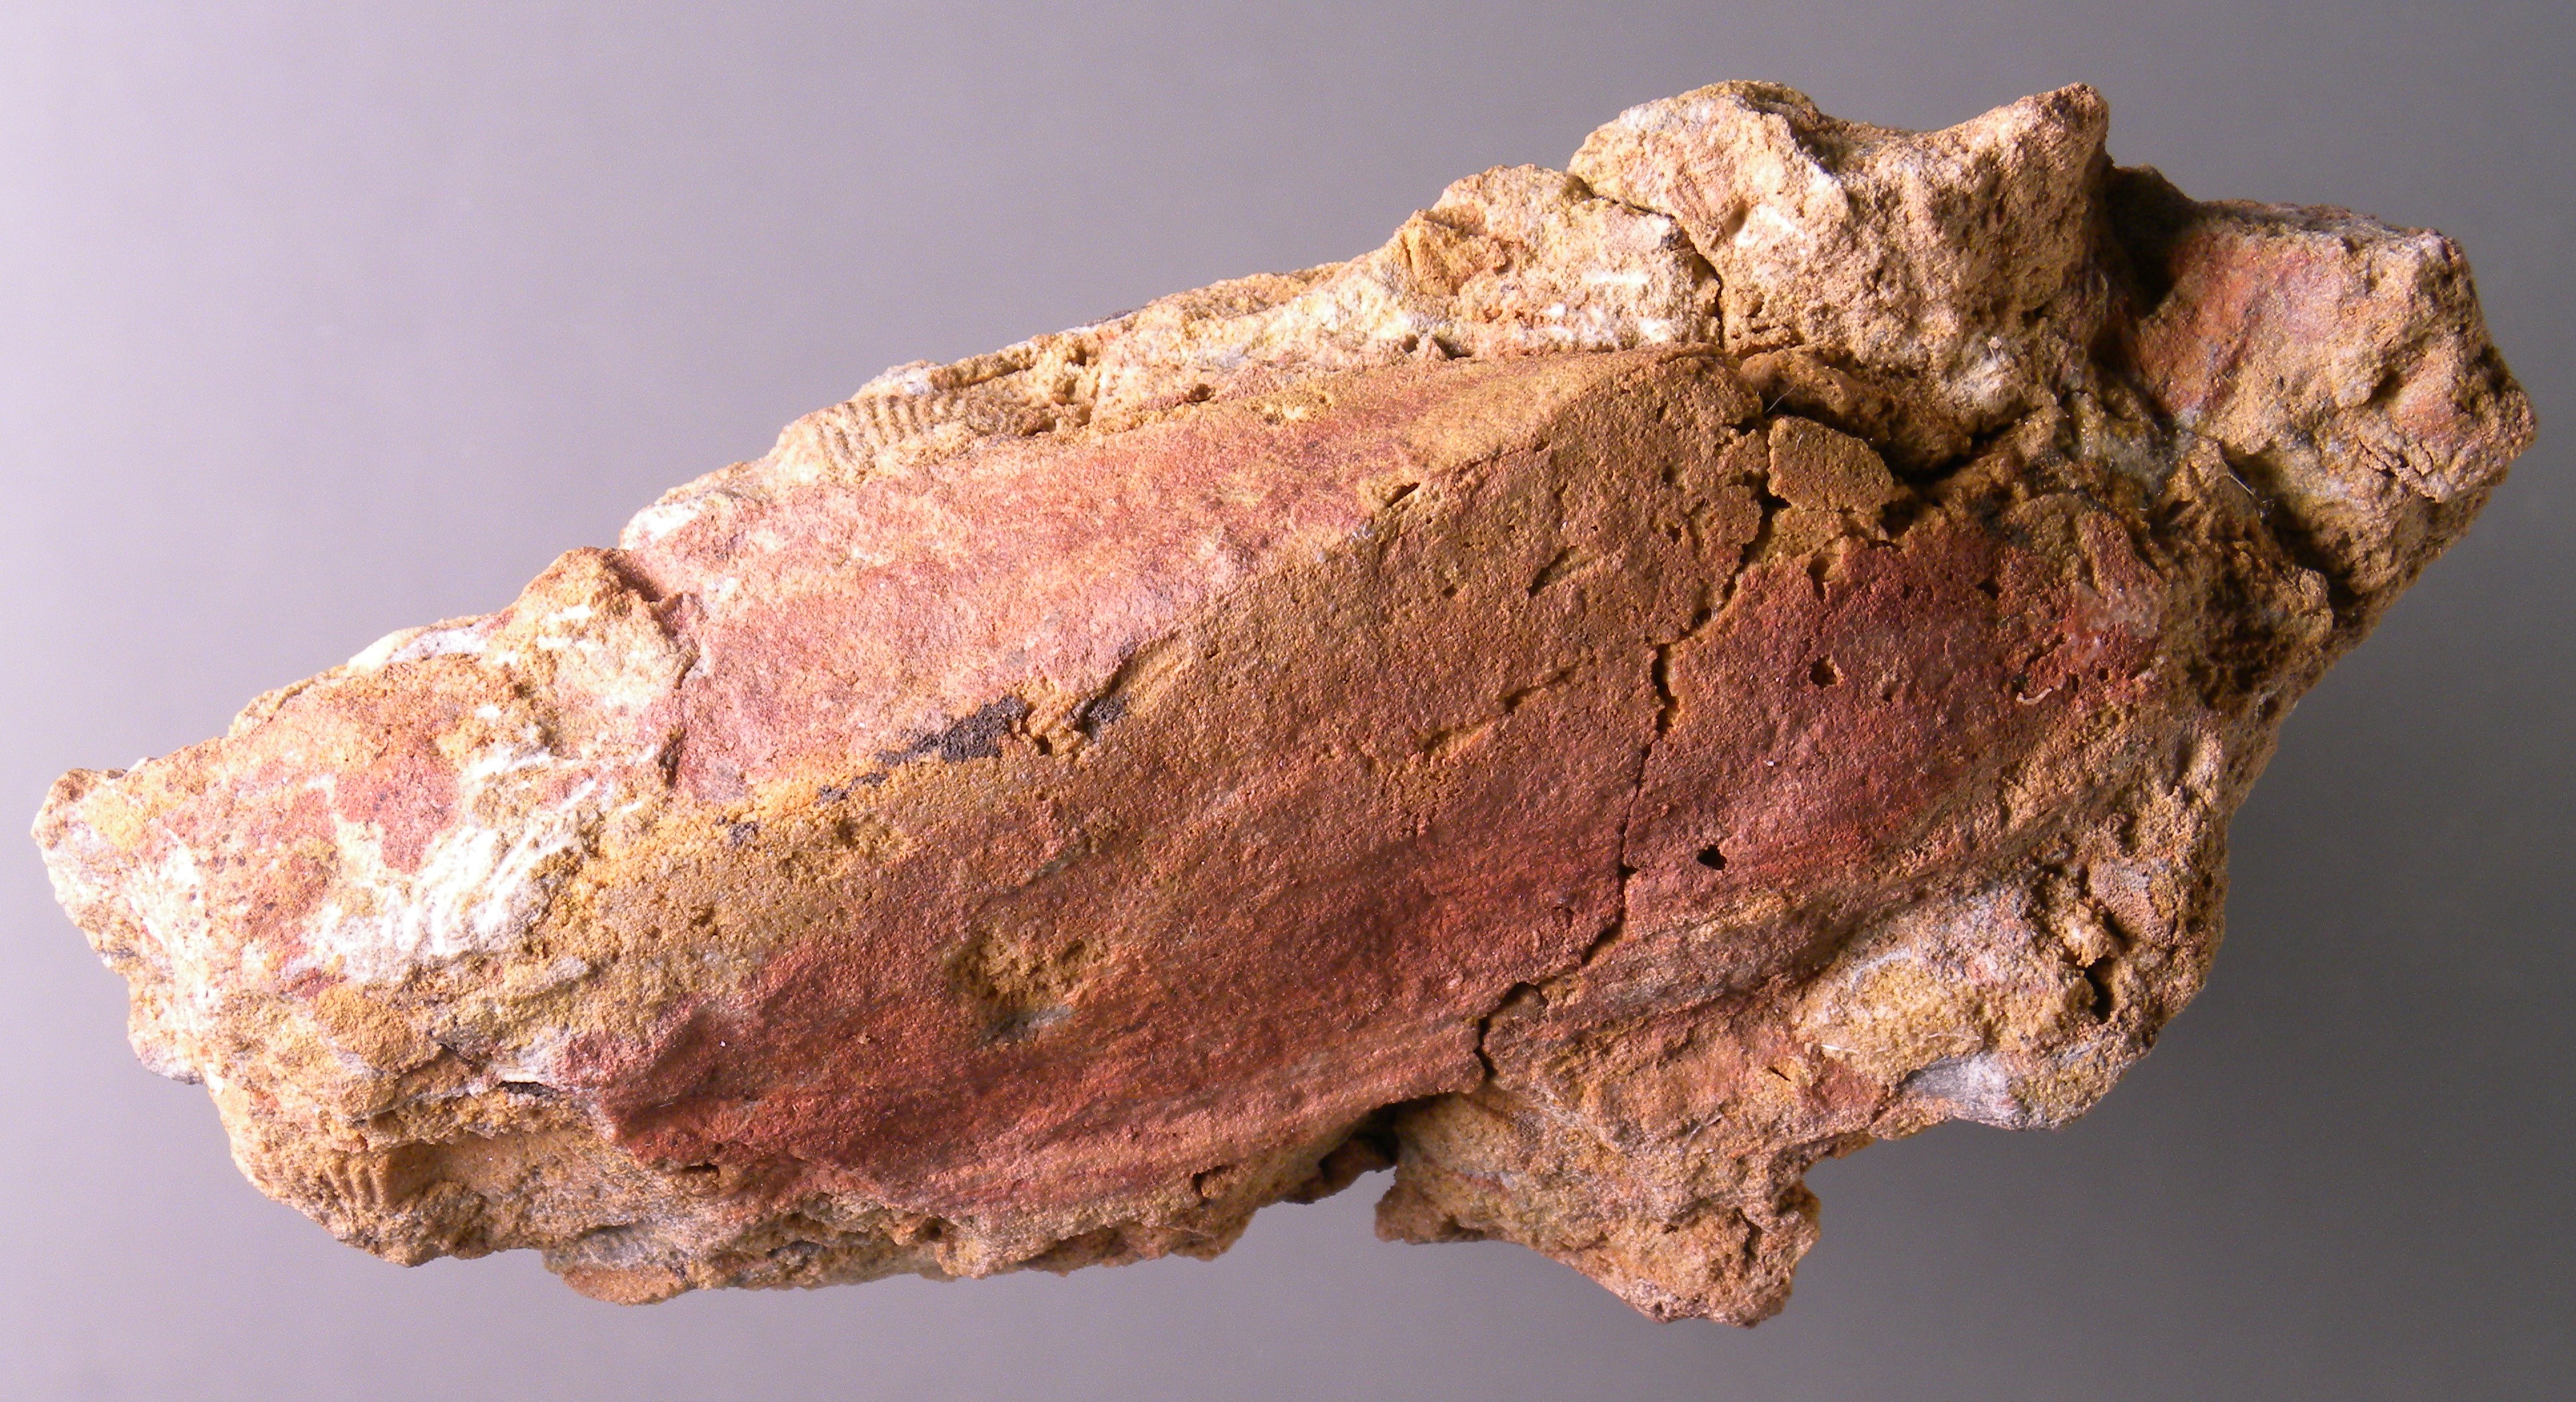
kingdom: Animalia
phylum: Mollusca
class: Bivalvia
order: Modiomorphida
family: Modiomorphidae
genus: Modiomorpha
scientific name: Modiomorpha
